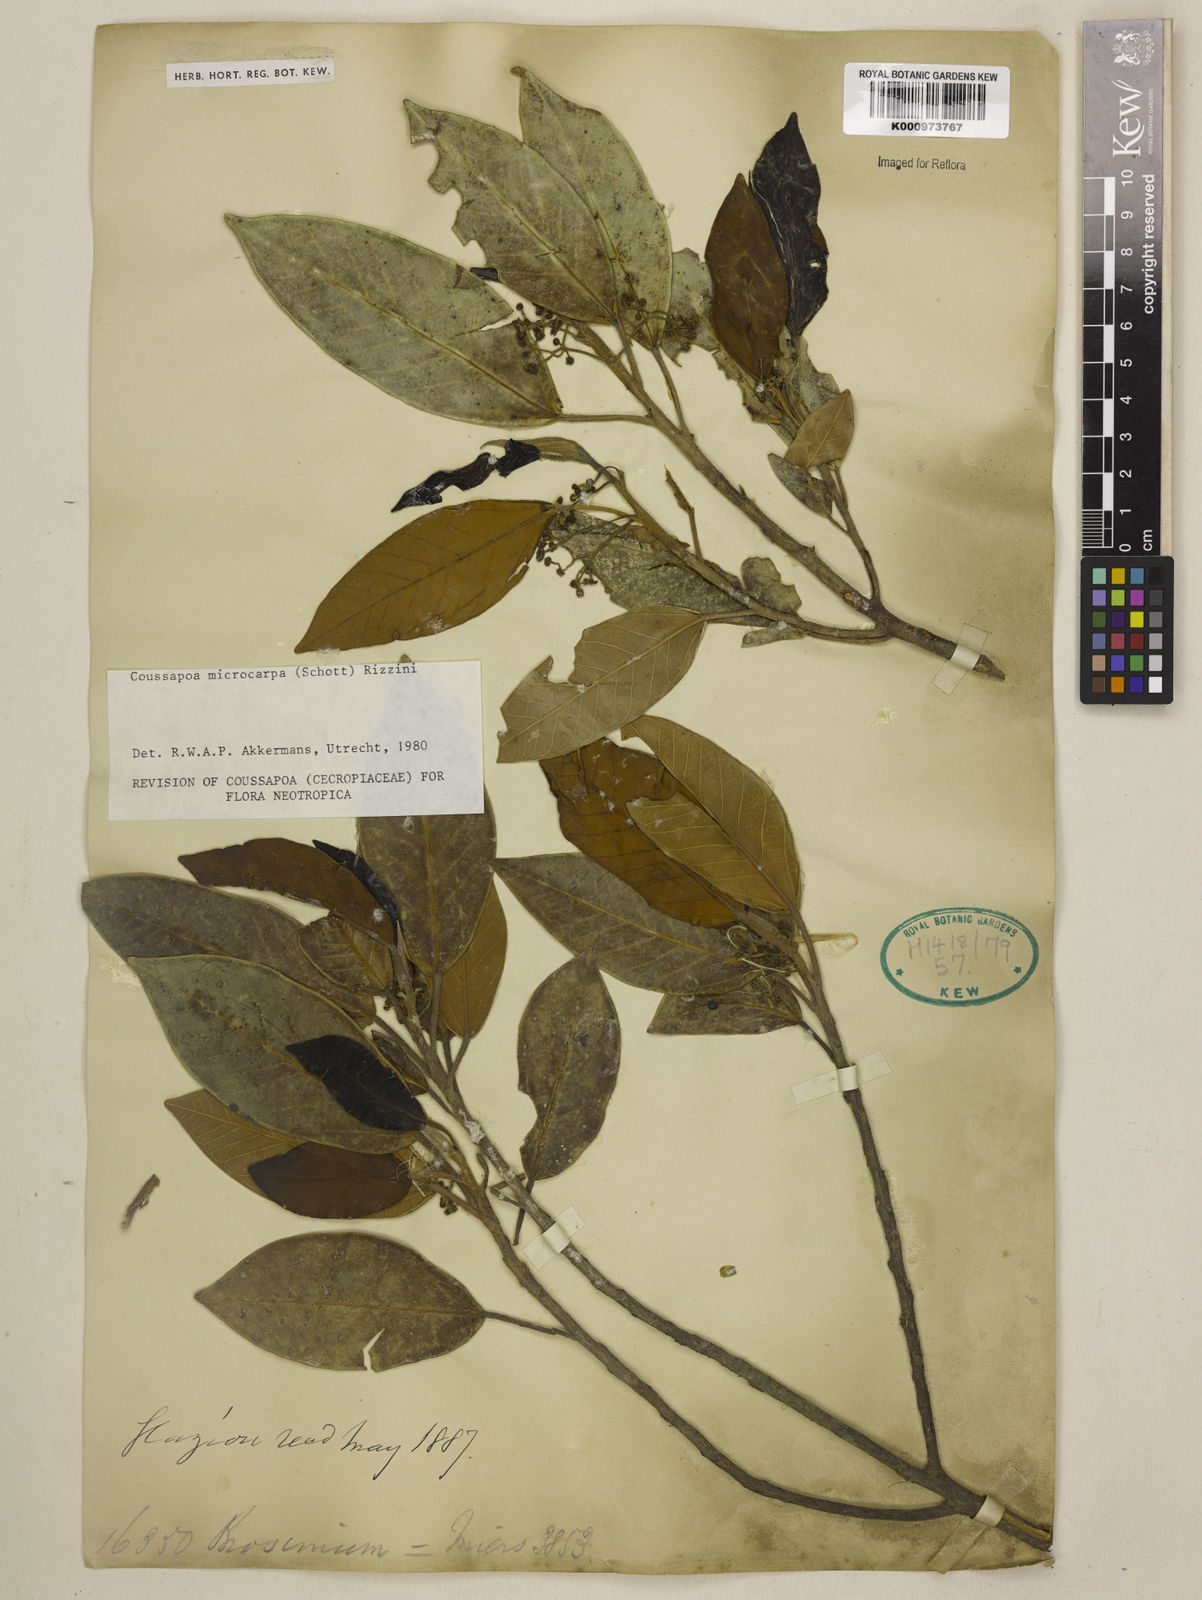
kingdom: Plantae
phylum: Tracheophyta
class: Magnoliopsida
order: Rosales
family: Urticaceae
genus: Coussapoa
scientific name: Coussapoa microcarpa
